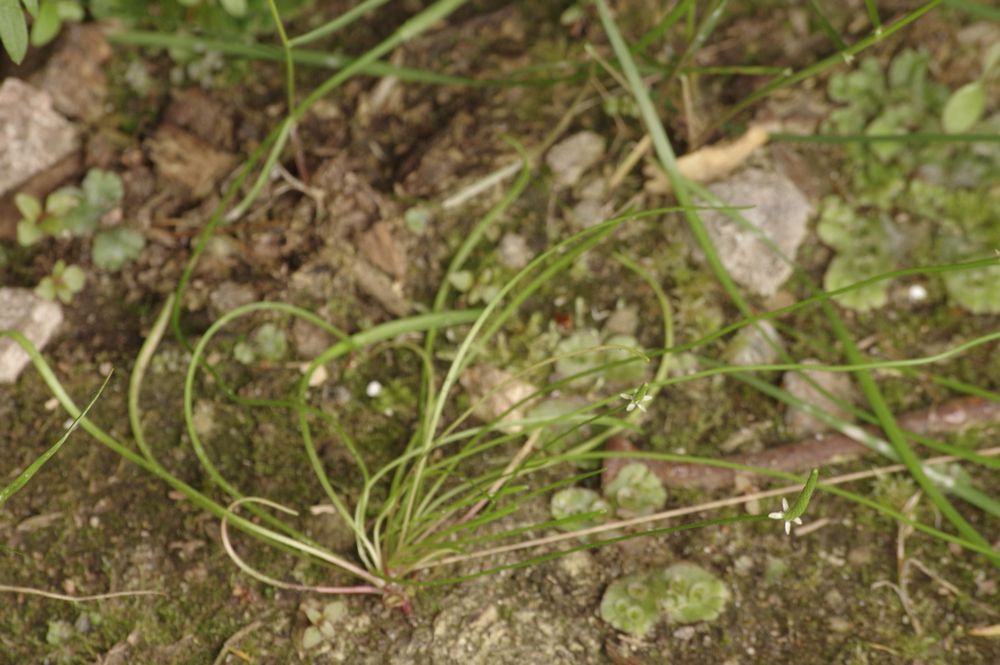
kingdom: Plantae
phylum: Tracheophyta
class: Magnoliopsida
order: Ranunculales
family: Ranunculaceae
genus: Myosurus
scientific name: Myosurus minimus
